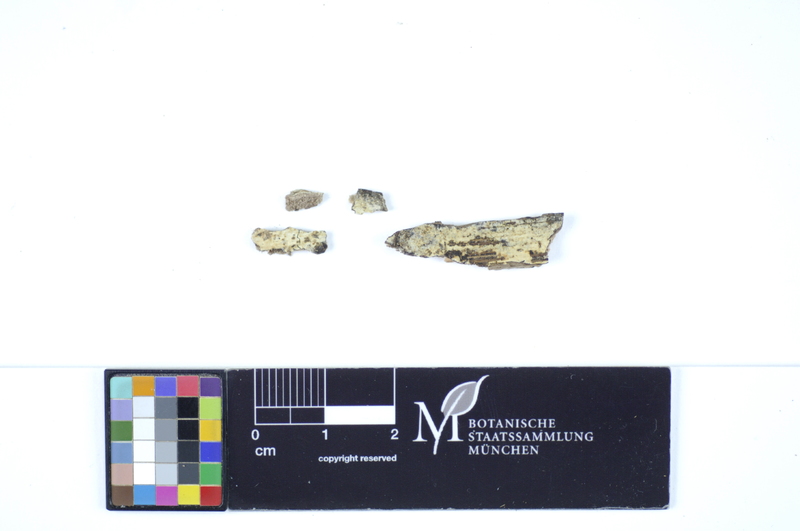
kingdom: Fungi
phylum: Basidiomycota
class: Agaricomycetes
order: Polyporales
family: Hyphodermataceae
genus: Hyphoderma
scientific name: Hyphoderma roseocremeum
